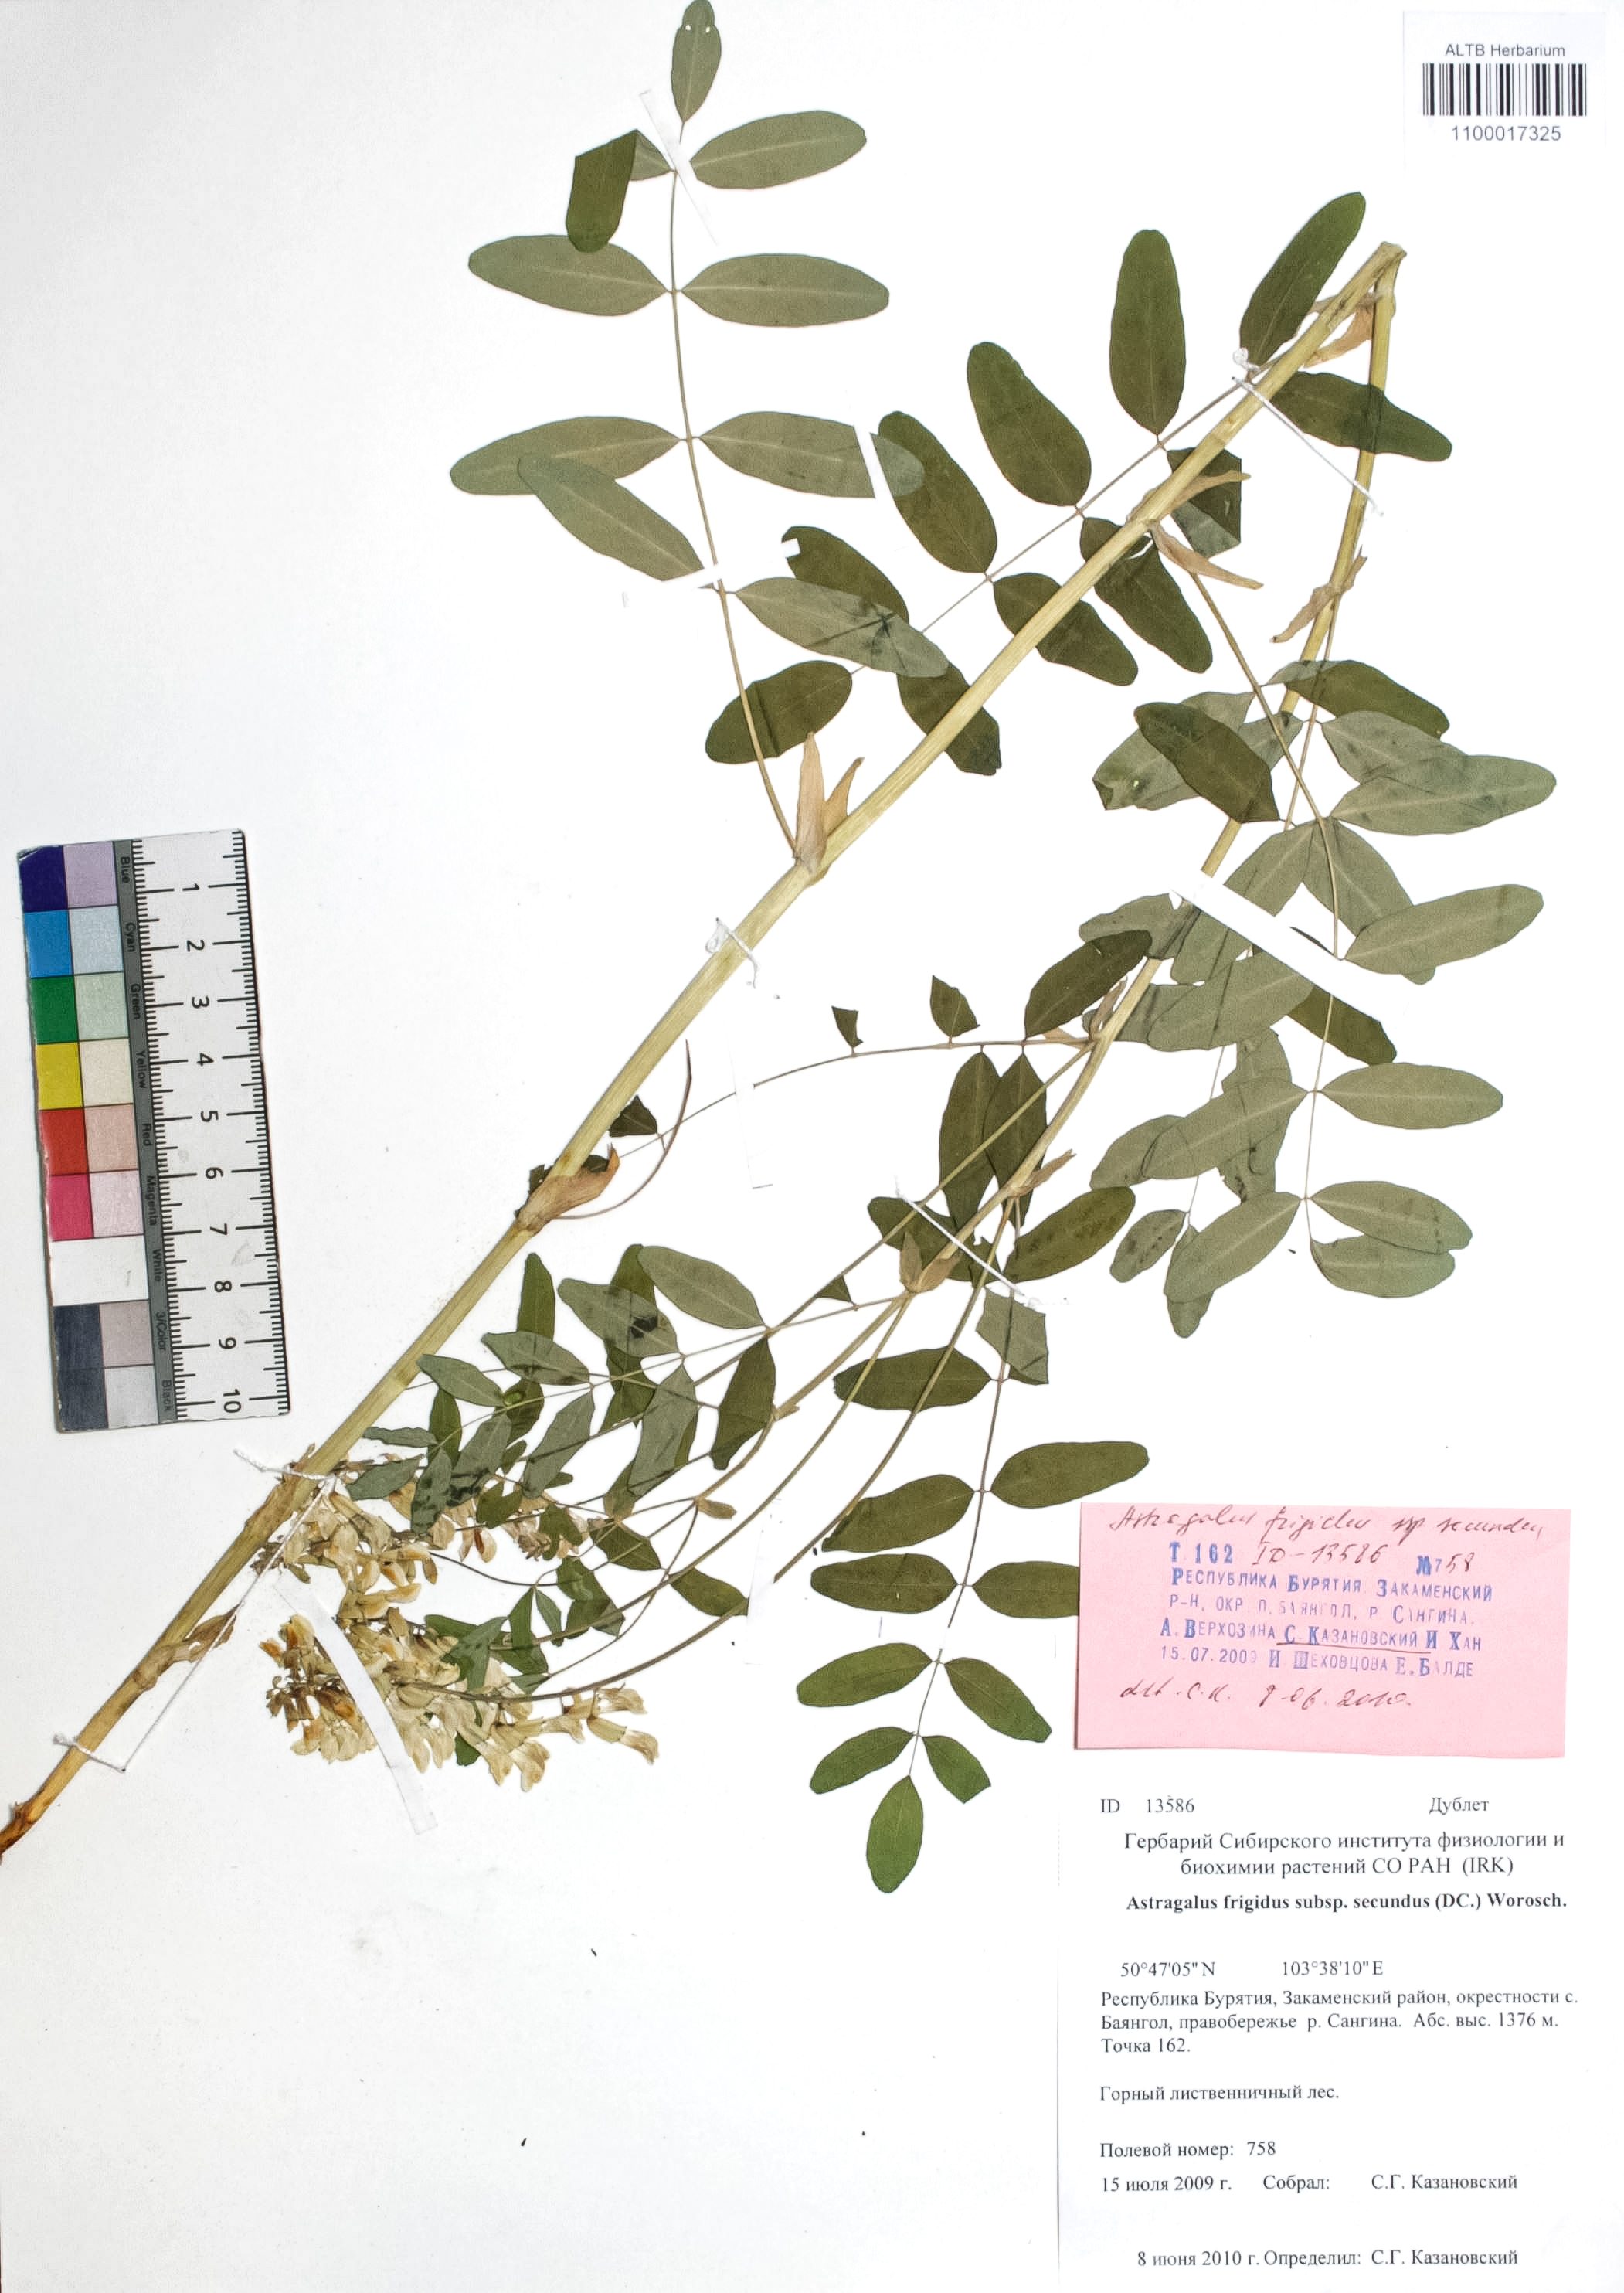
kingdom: Plantae
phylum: Tracheophyta
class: Magnoliopsida
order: Fabales
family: Fabaceae
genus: Astragalus
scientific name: Astragalus frigidus
